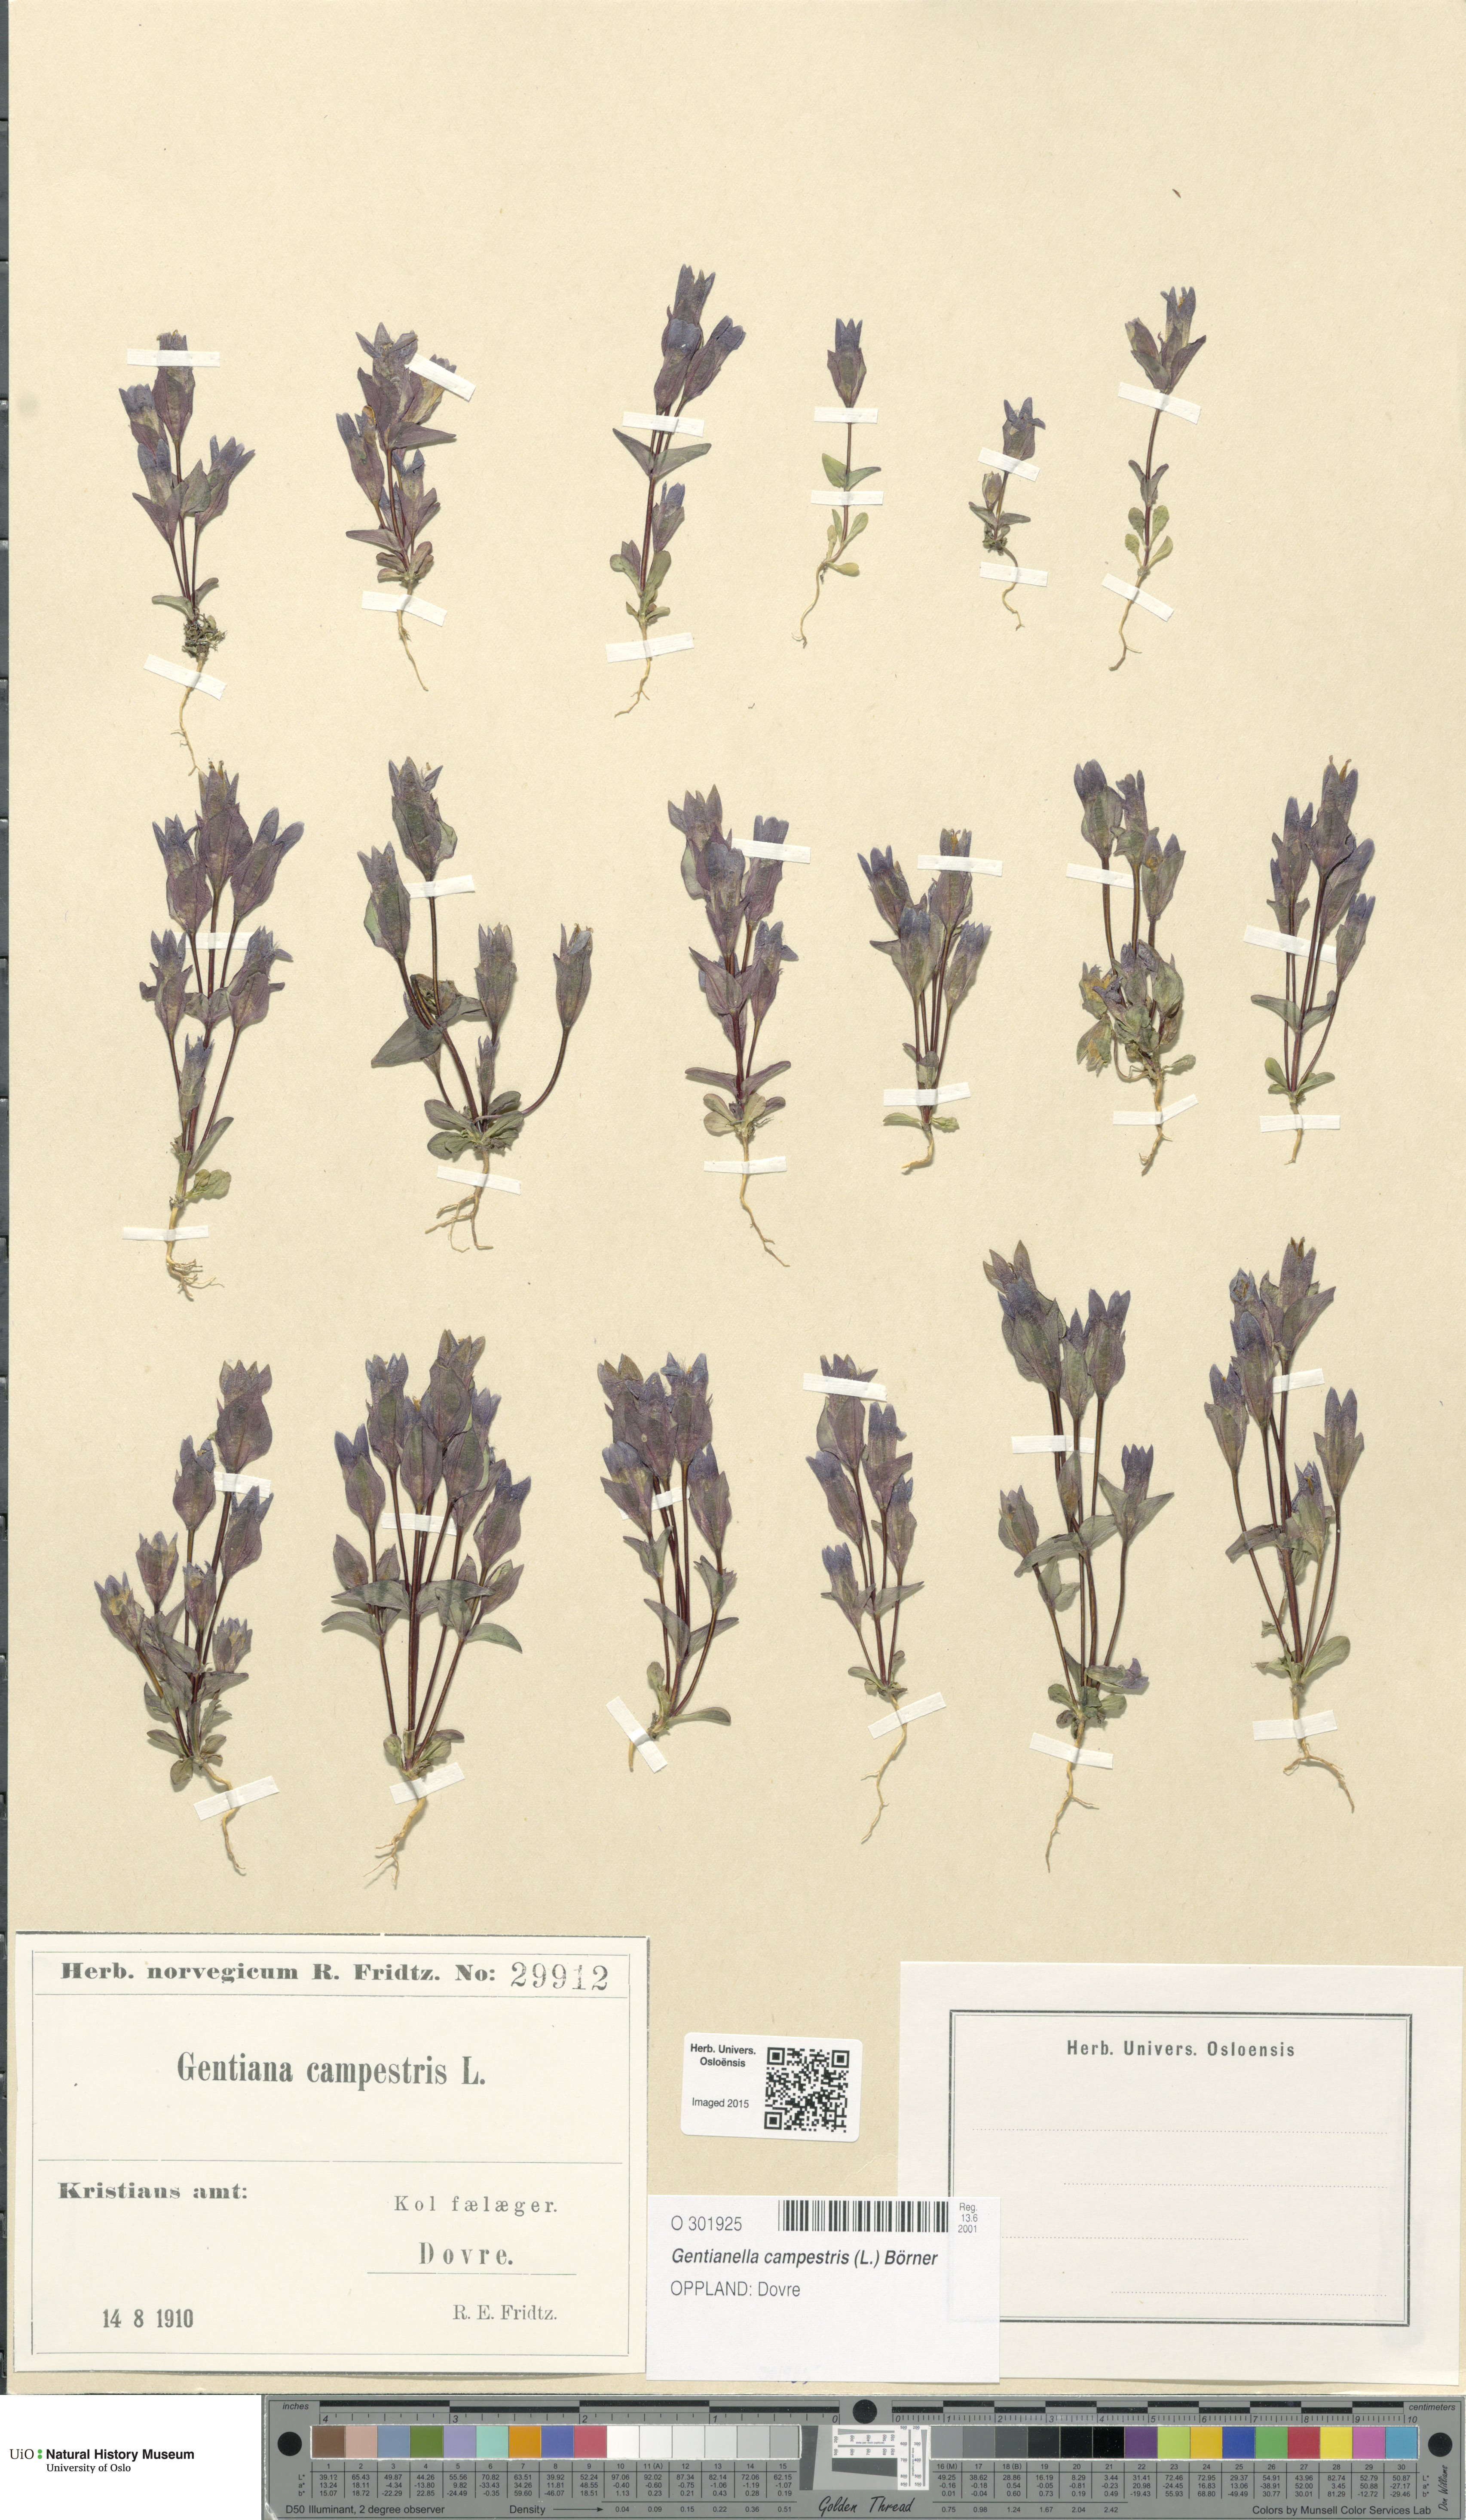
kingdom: Plantae
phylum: Tracheophyta
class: Magnoliopsida
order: Gentianales
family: Gentianaceae
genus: Gentianella
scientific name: Gentianella campestris
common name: Field gentian
